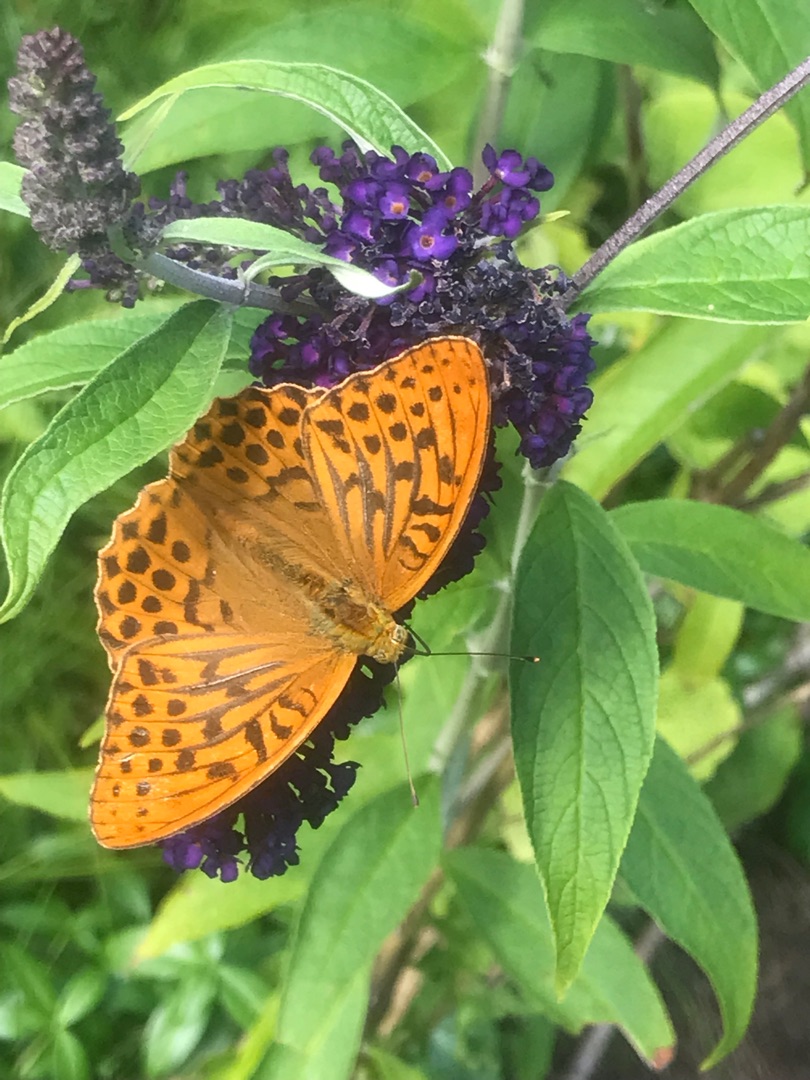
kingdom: Animalia
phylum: Arthropoda
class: Insecta
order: Lepidoptera
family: Nymphalidae
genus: Argynnis
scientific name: Argynnis paphia
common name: Kejserkåbe
